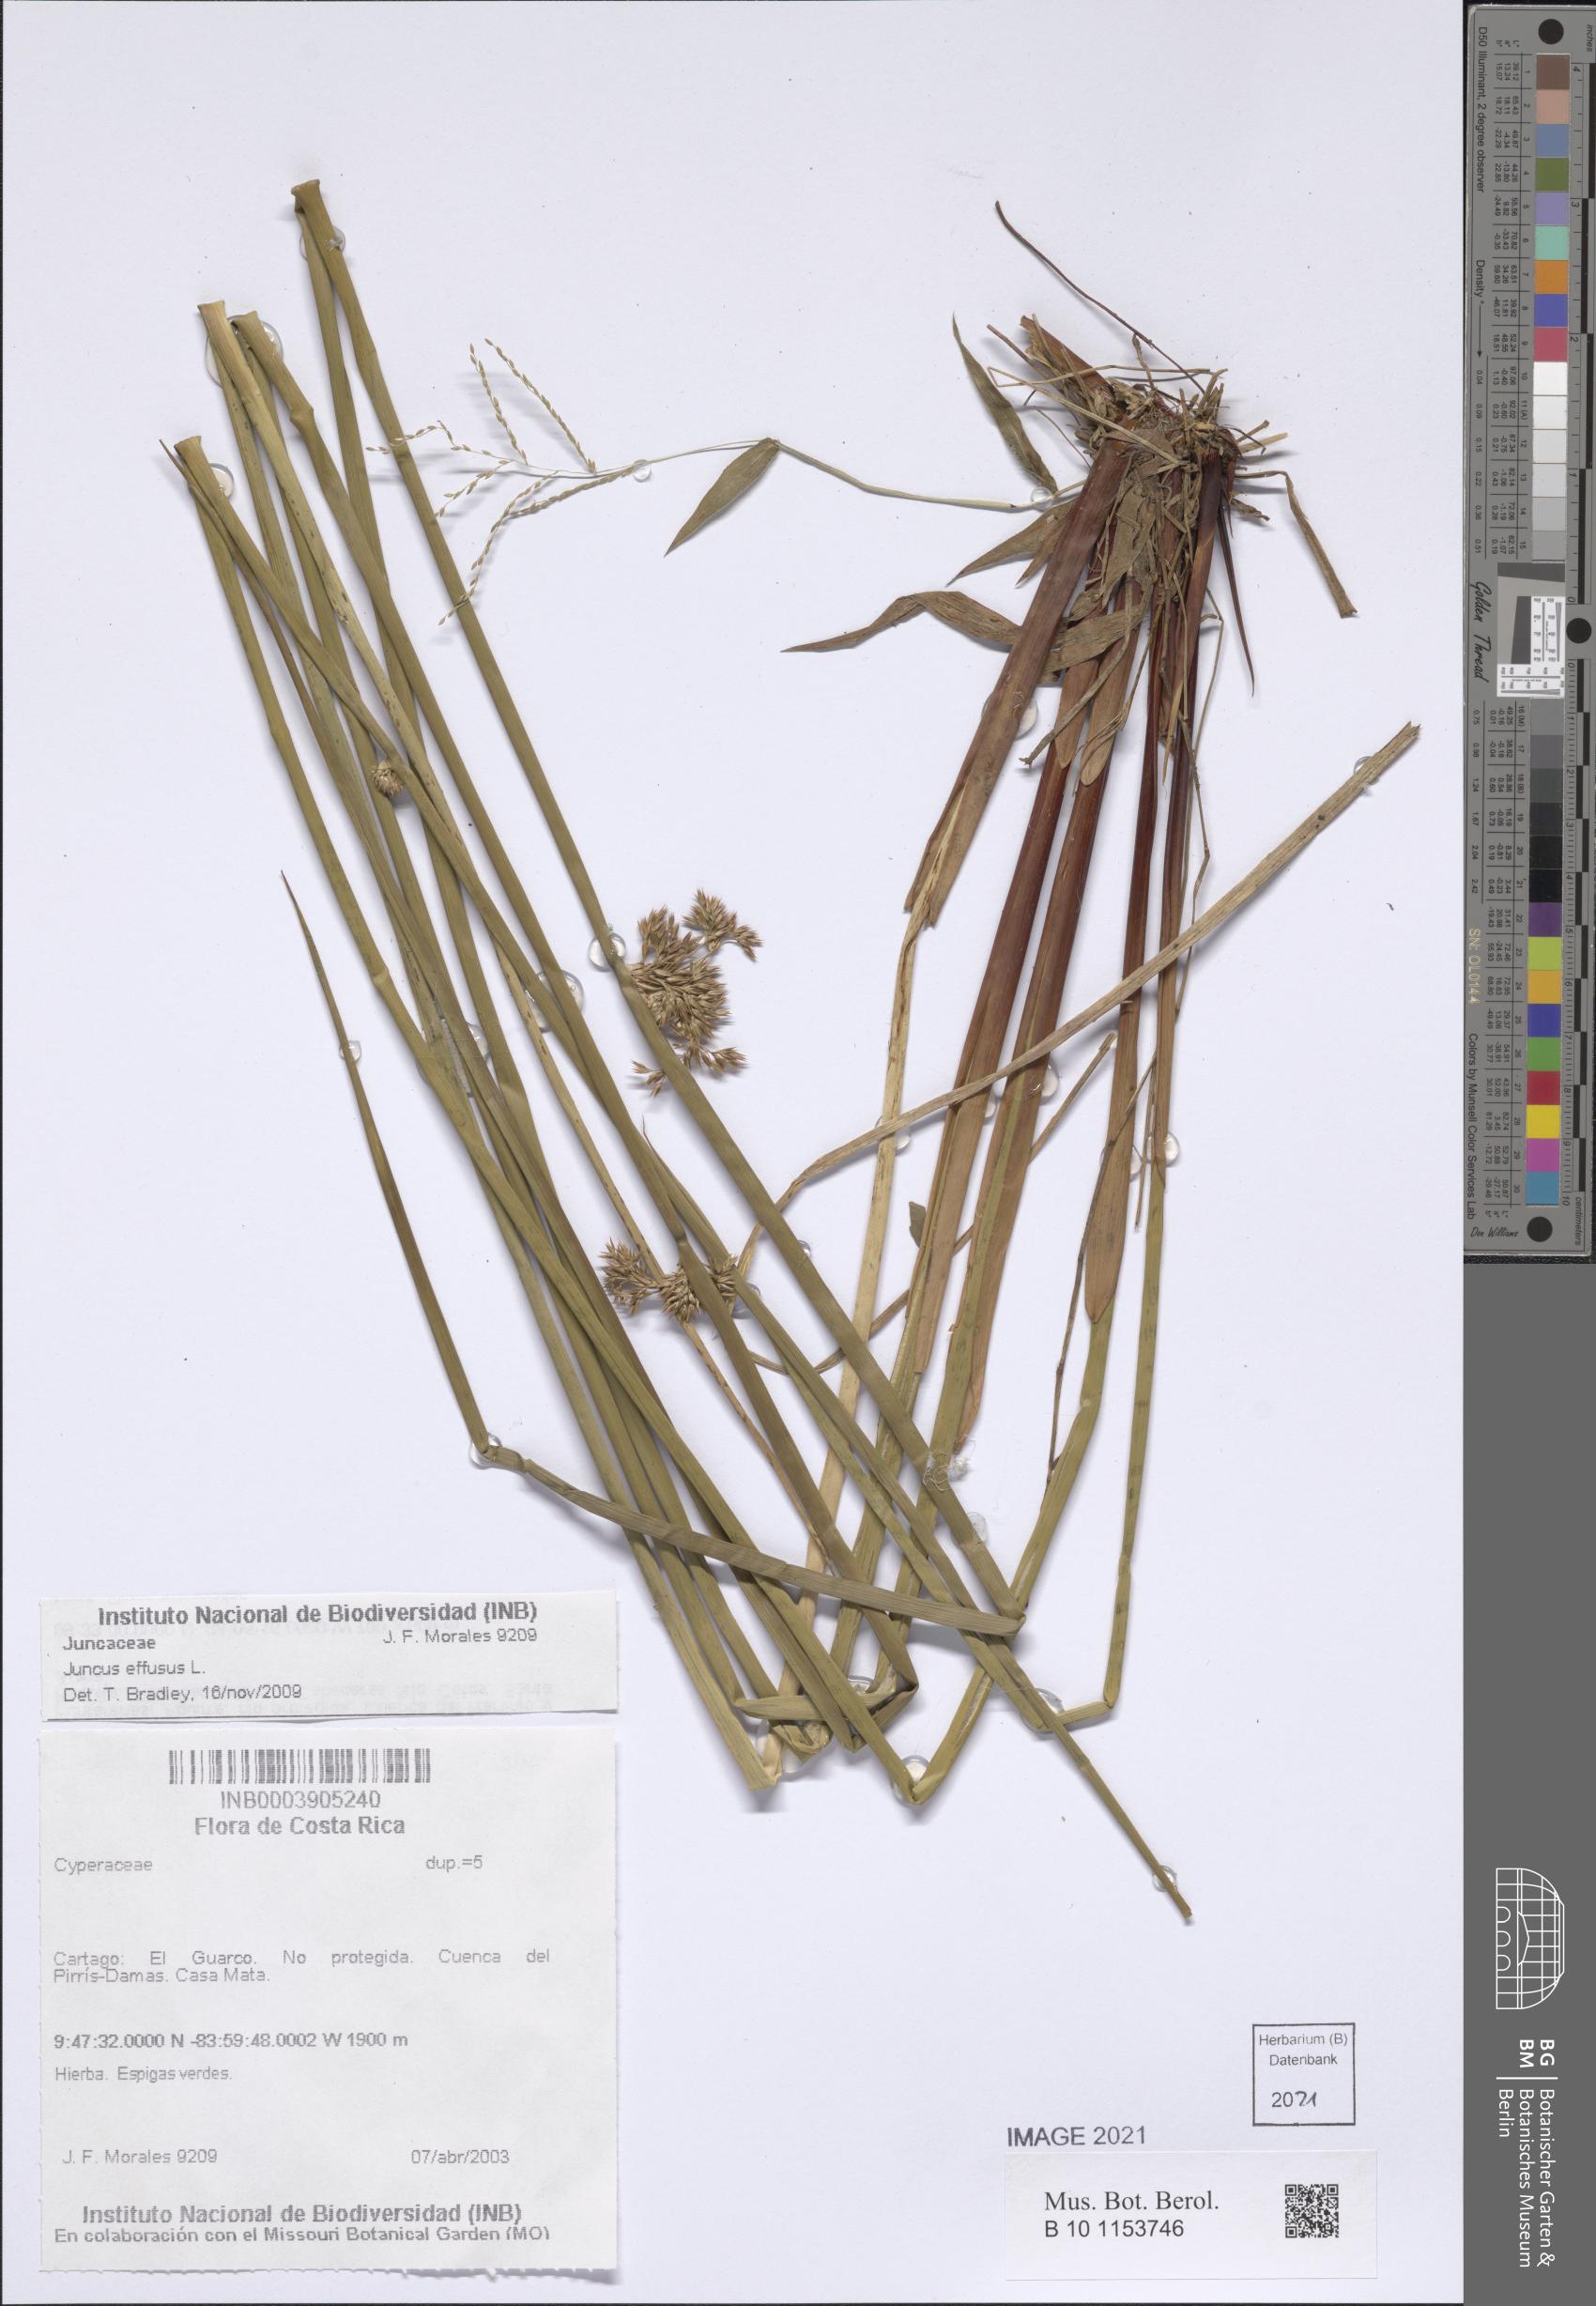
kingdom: Plantae
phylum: Tracheophyta
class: Liliopsida
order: Poales
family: Juncaceae
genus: Juncus
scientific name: Juncus effusus
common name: Soft rush
